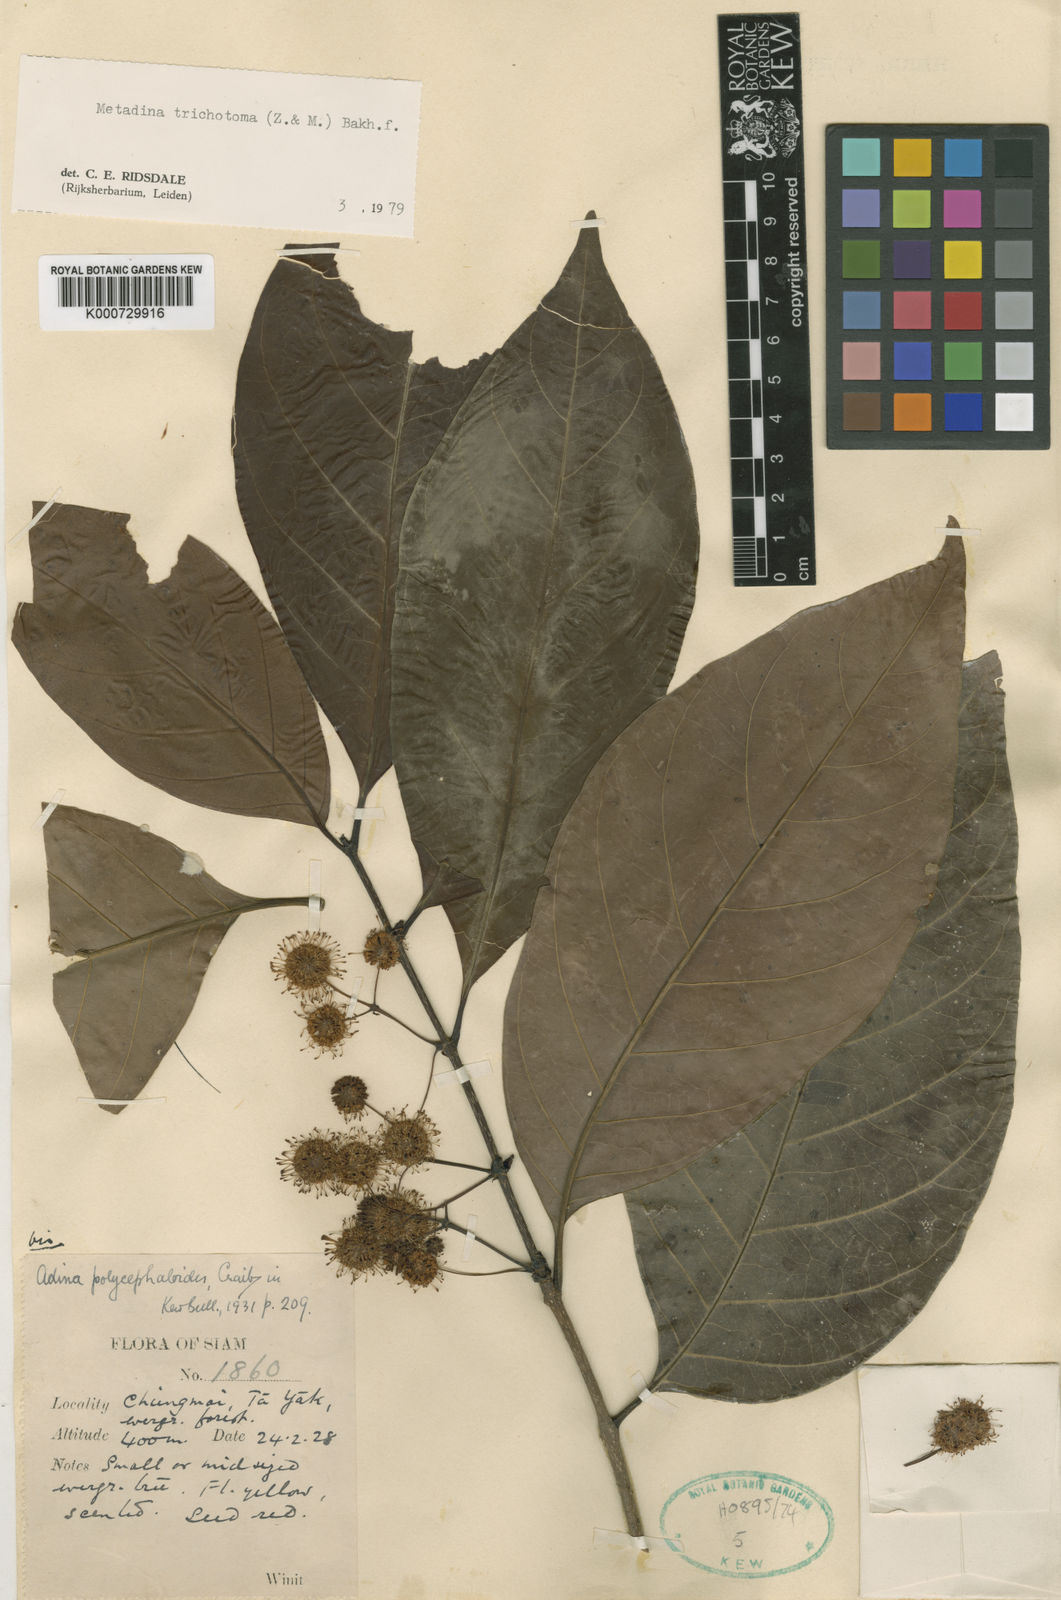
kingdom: Plantae
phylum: Tracheophyta
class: Magnoliopsida
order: Gentianales
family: Rubiaceae
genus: Adina
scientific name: Adina trichotoma
